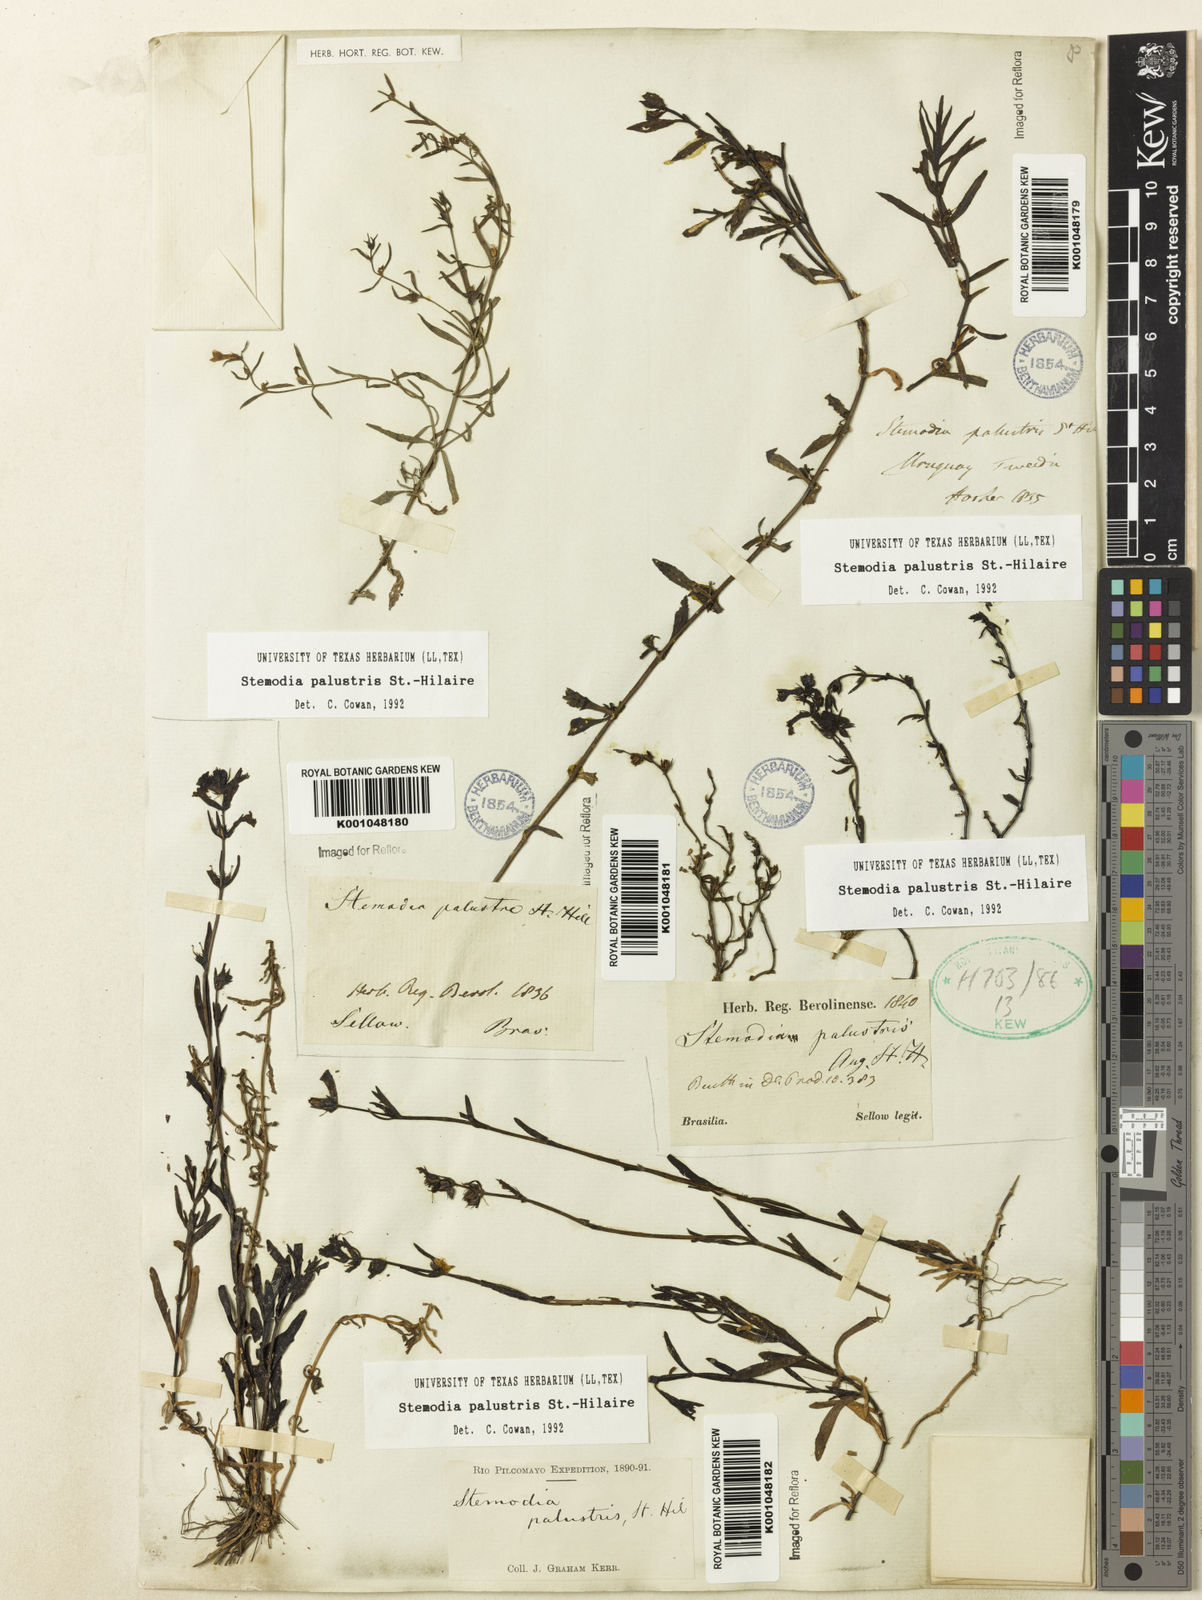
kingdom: Plantae
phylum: Tracheophyta
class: Magnoliopsida
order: Lamiales
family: Plantaginaceae
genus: Stemodia
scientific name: Stemodia palustris
